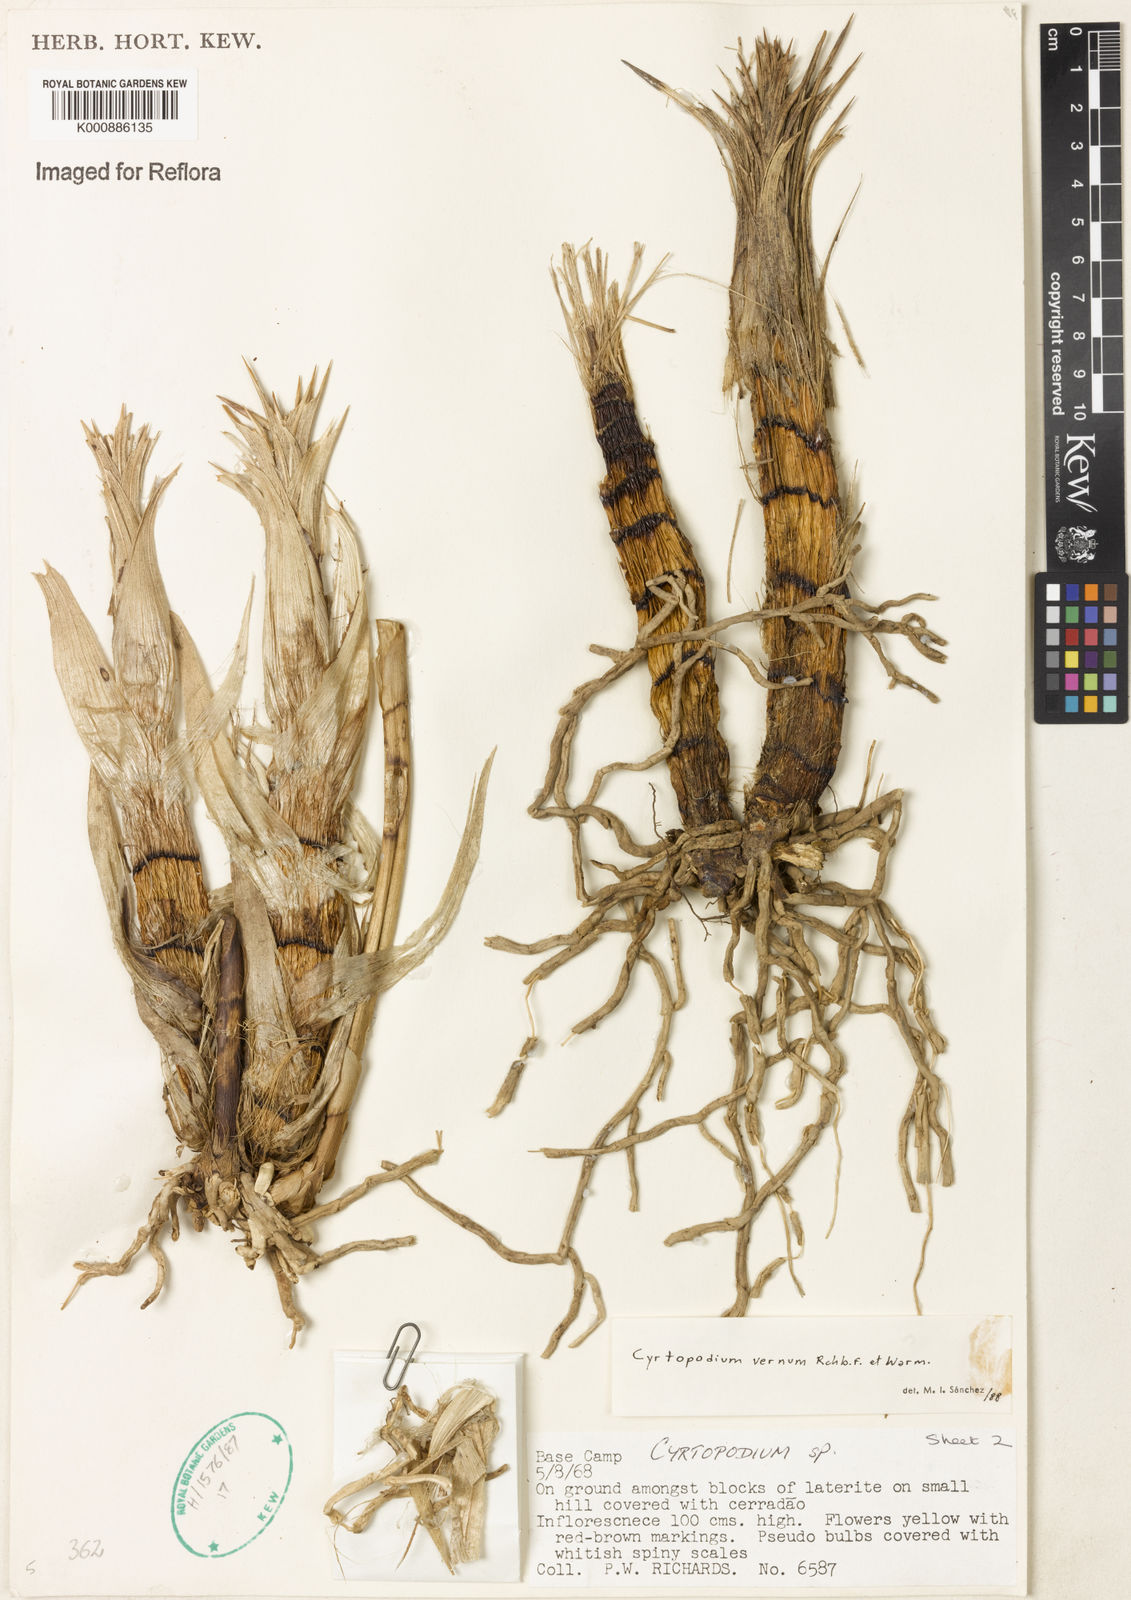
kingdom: Plantae
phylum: Tracheophyta
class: Liliopsida
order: Asparagales
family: Orchidaceae
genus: Cyrtopodium
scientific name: Cyrtopodium vernum
